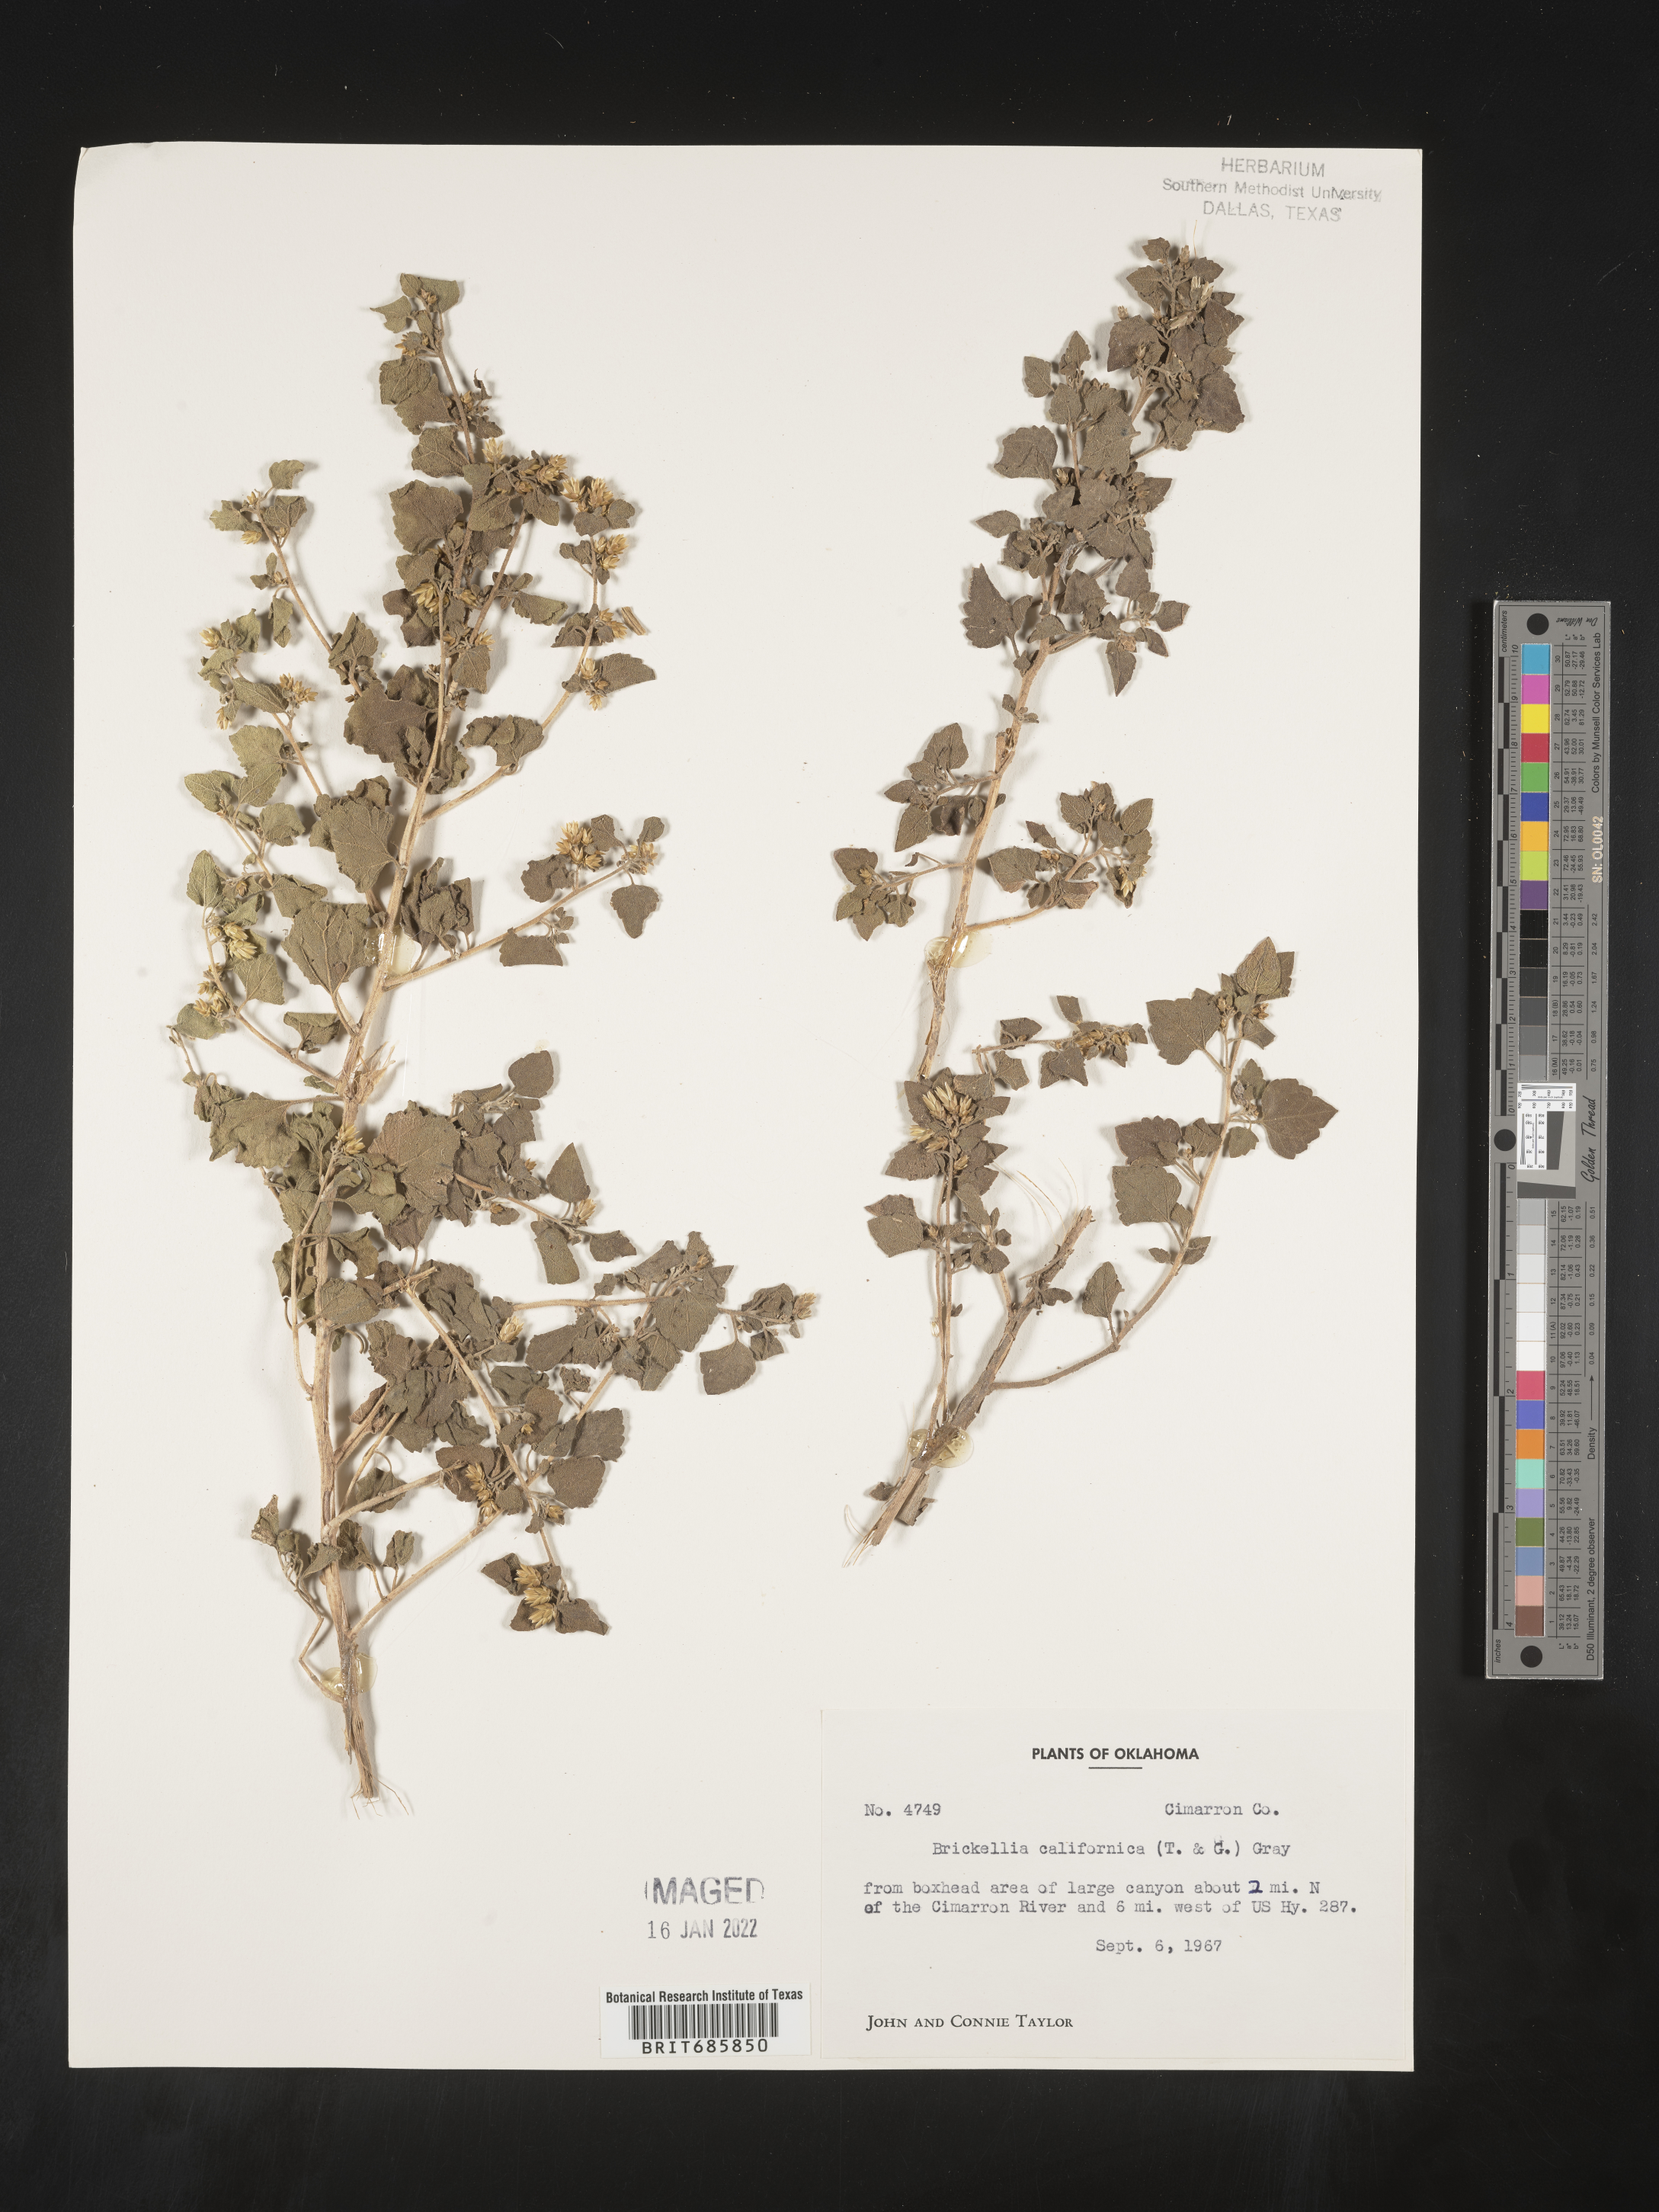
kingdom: Plantae
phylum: Tracheophyta
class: Magnoliopsida
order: Asterales
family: Asteraceae
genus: Brickellia
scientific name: Brickellia californica
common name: California brickellbush
